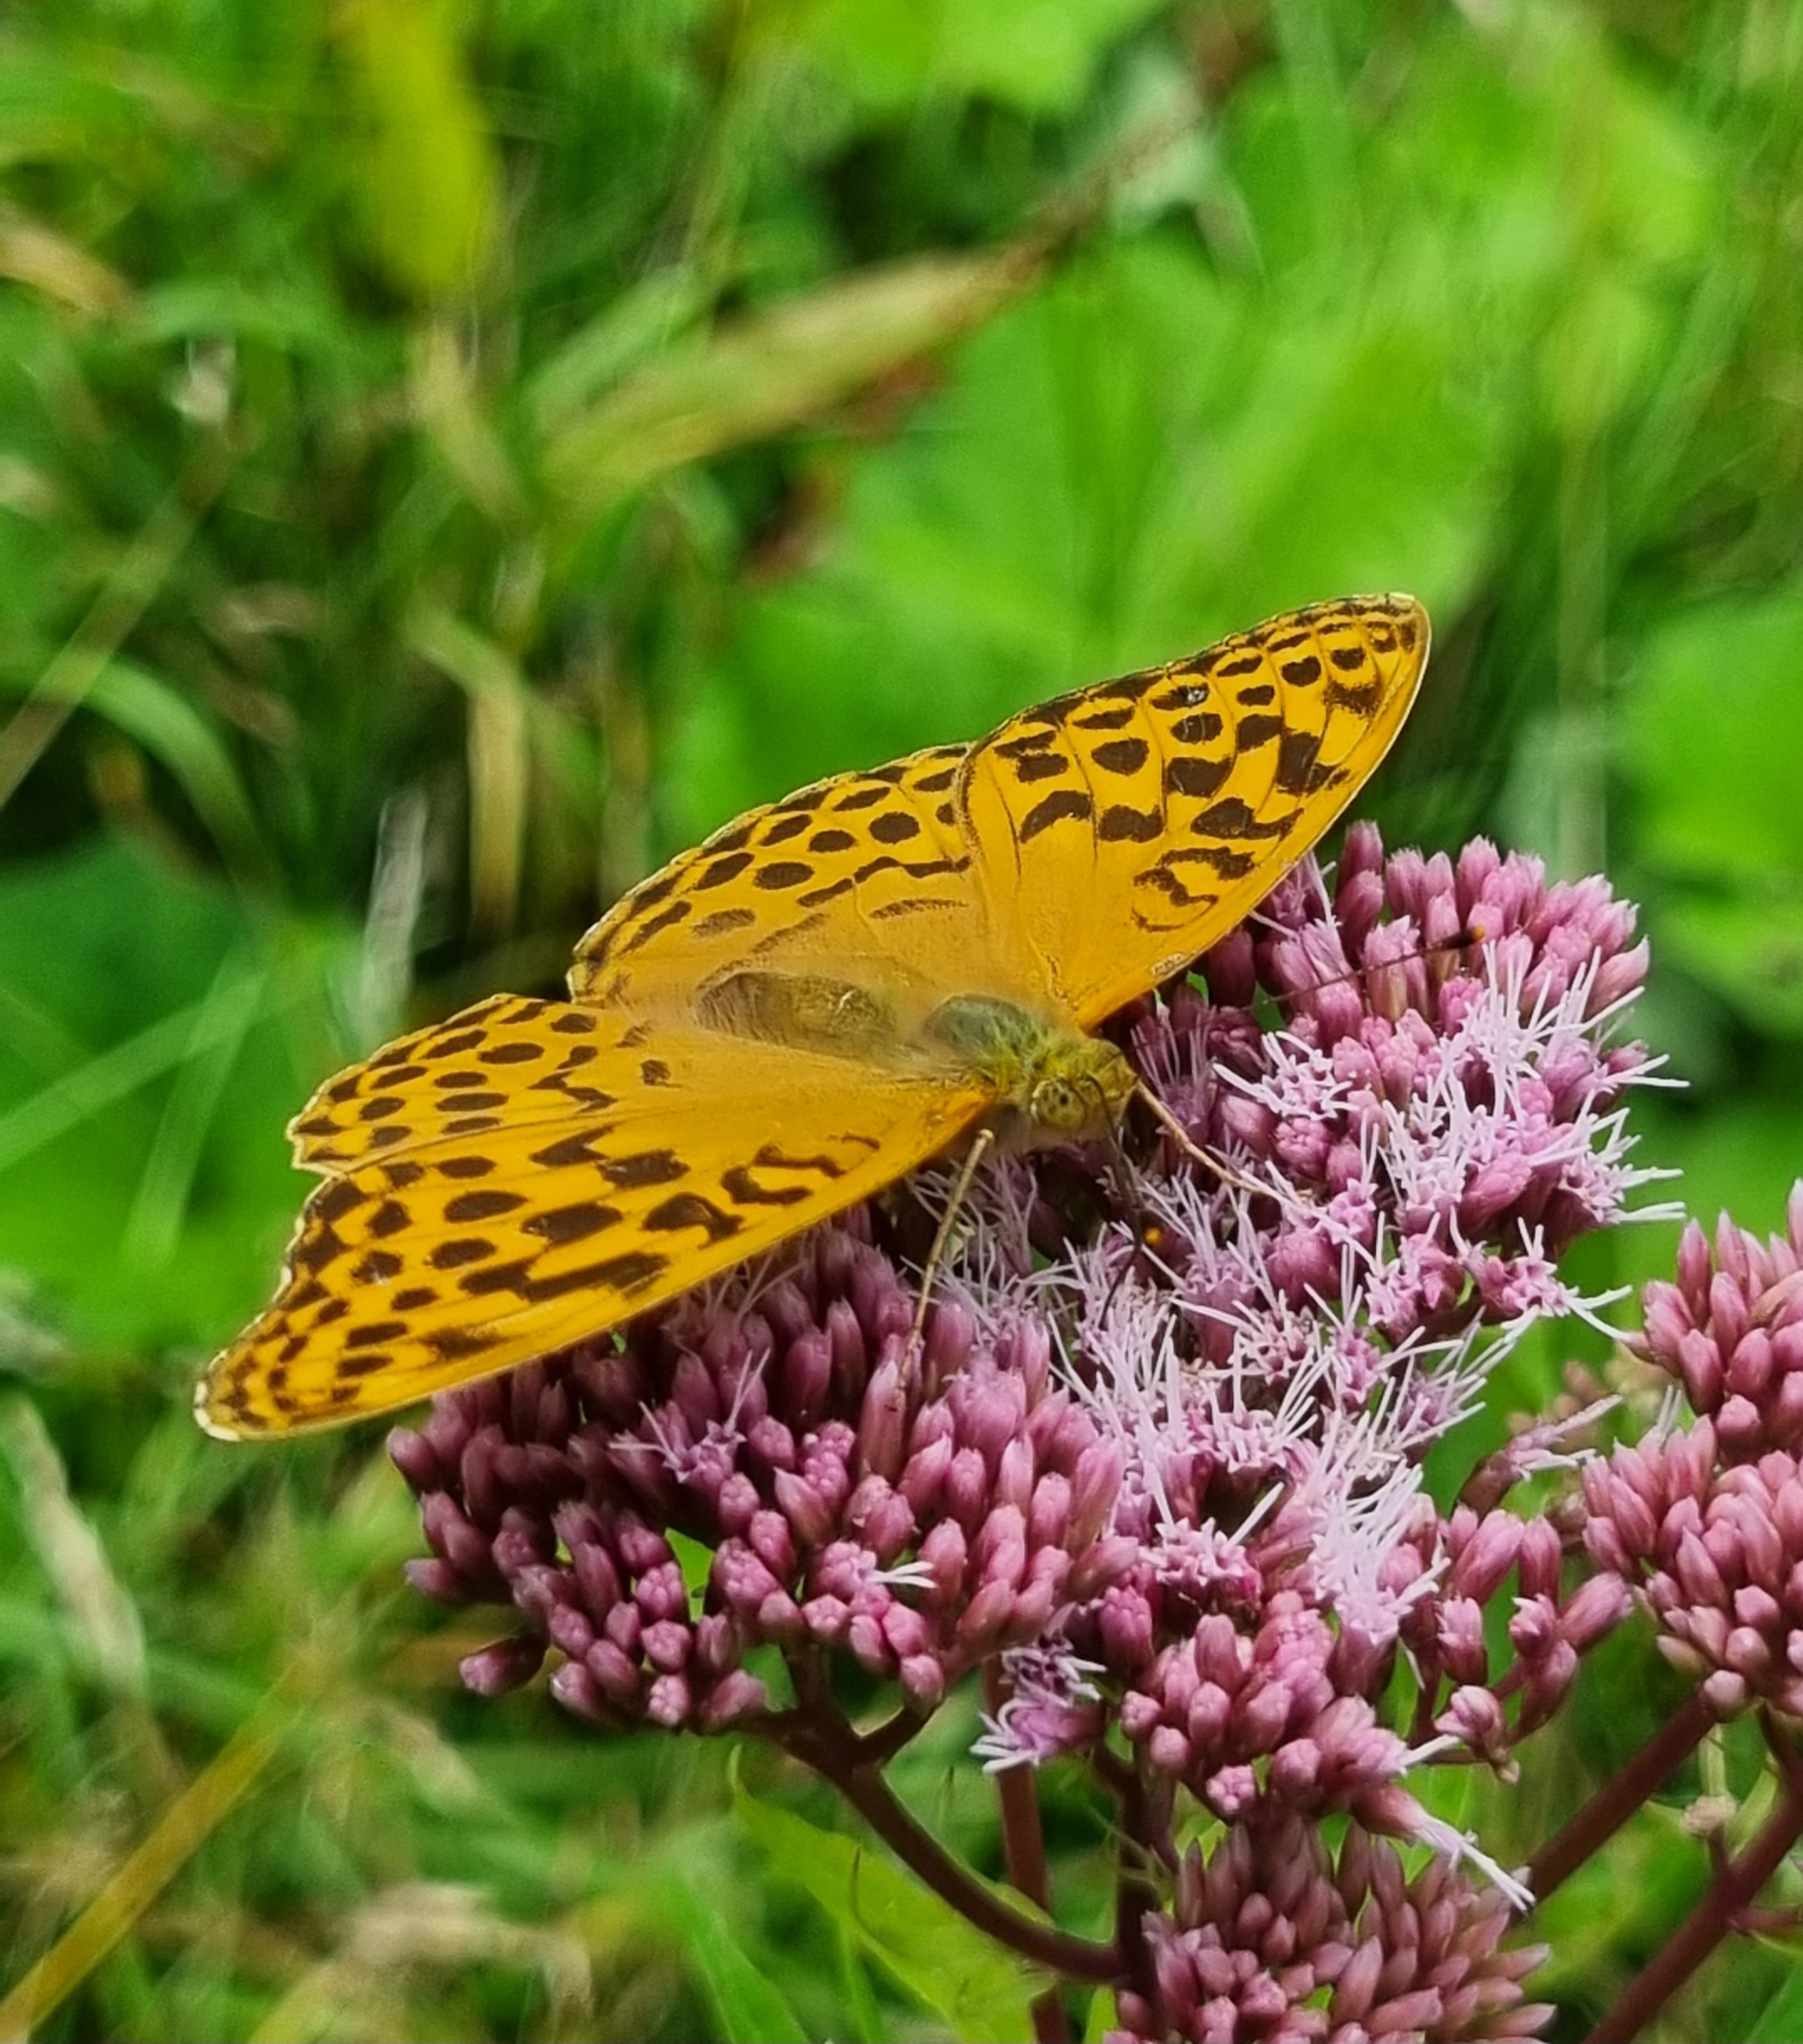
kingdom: Animalia
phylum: Arthropoda
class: Insecta
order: Lepidoptera
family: Nymphalidae
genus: Argynnis
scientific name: Argynnis paphia
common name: Kejserkåbe
